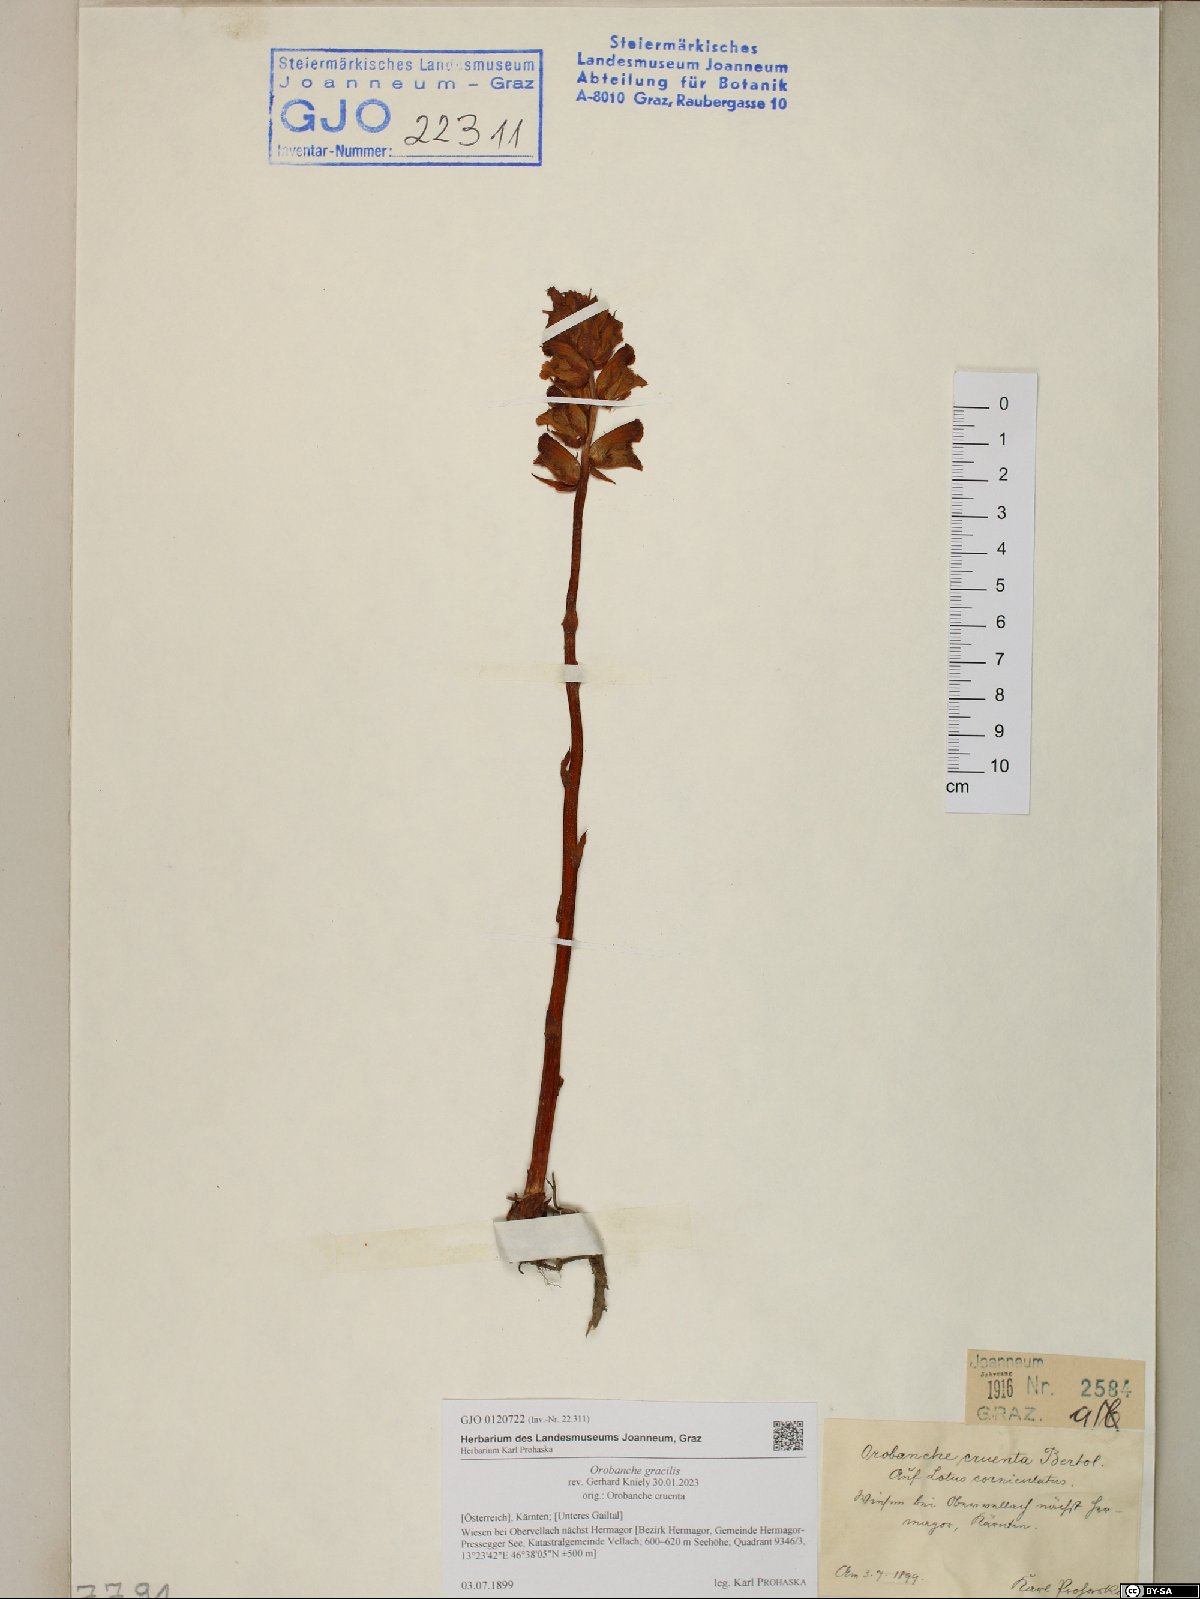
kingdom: Plantae
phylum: Tracheophyta
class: Magnoliopsida
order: Lamiales
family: Orobanchaceae
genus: Orobanche
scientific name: Orobanche gracilis
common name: Slender broomrape
